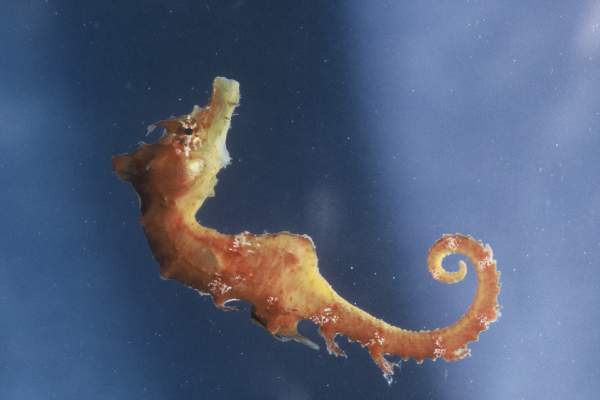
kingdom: Animalia
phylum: Chordata
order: Syngnathiformes
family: Syngnathidae
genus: Hippocampus
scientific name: Hippocampus guttulatus
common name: Long-snouted seahorse
